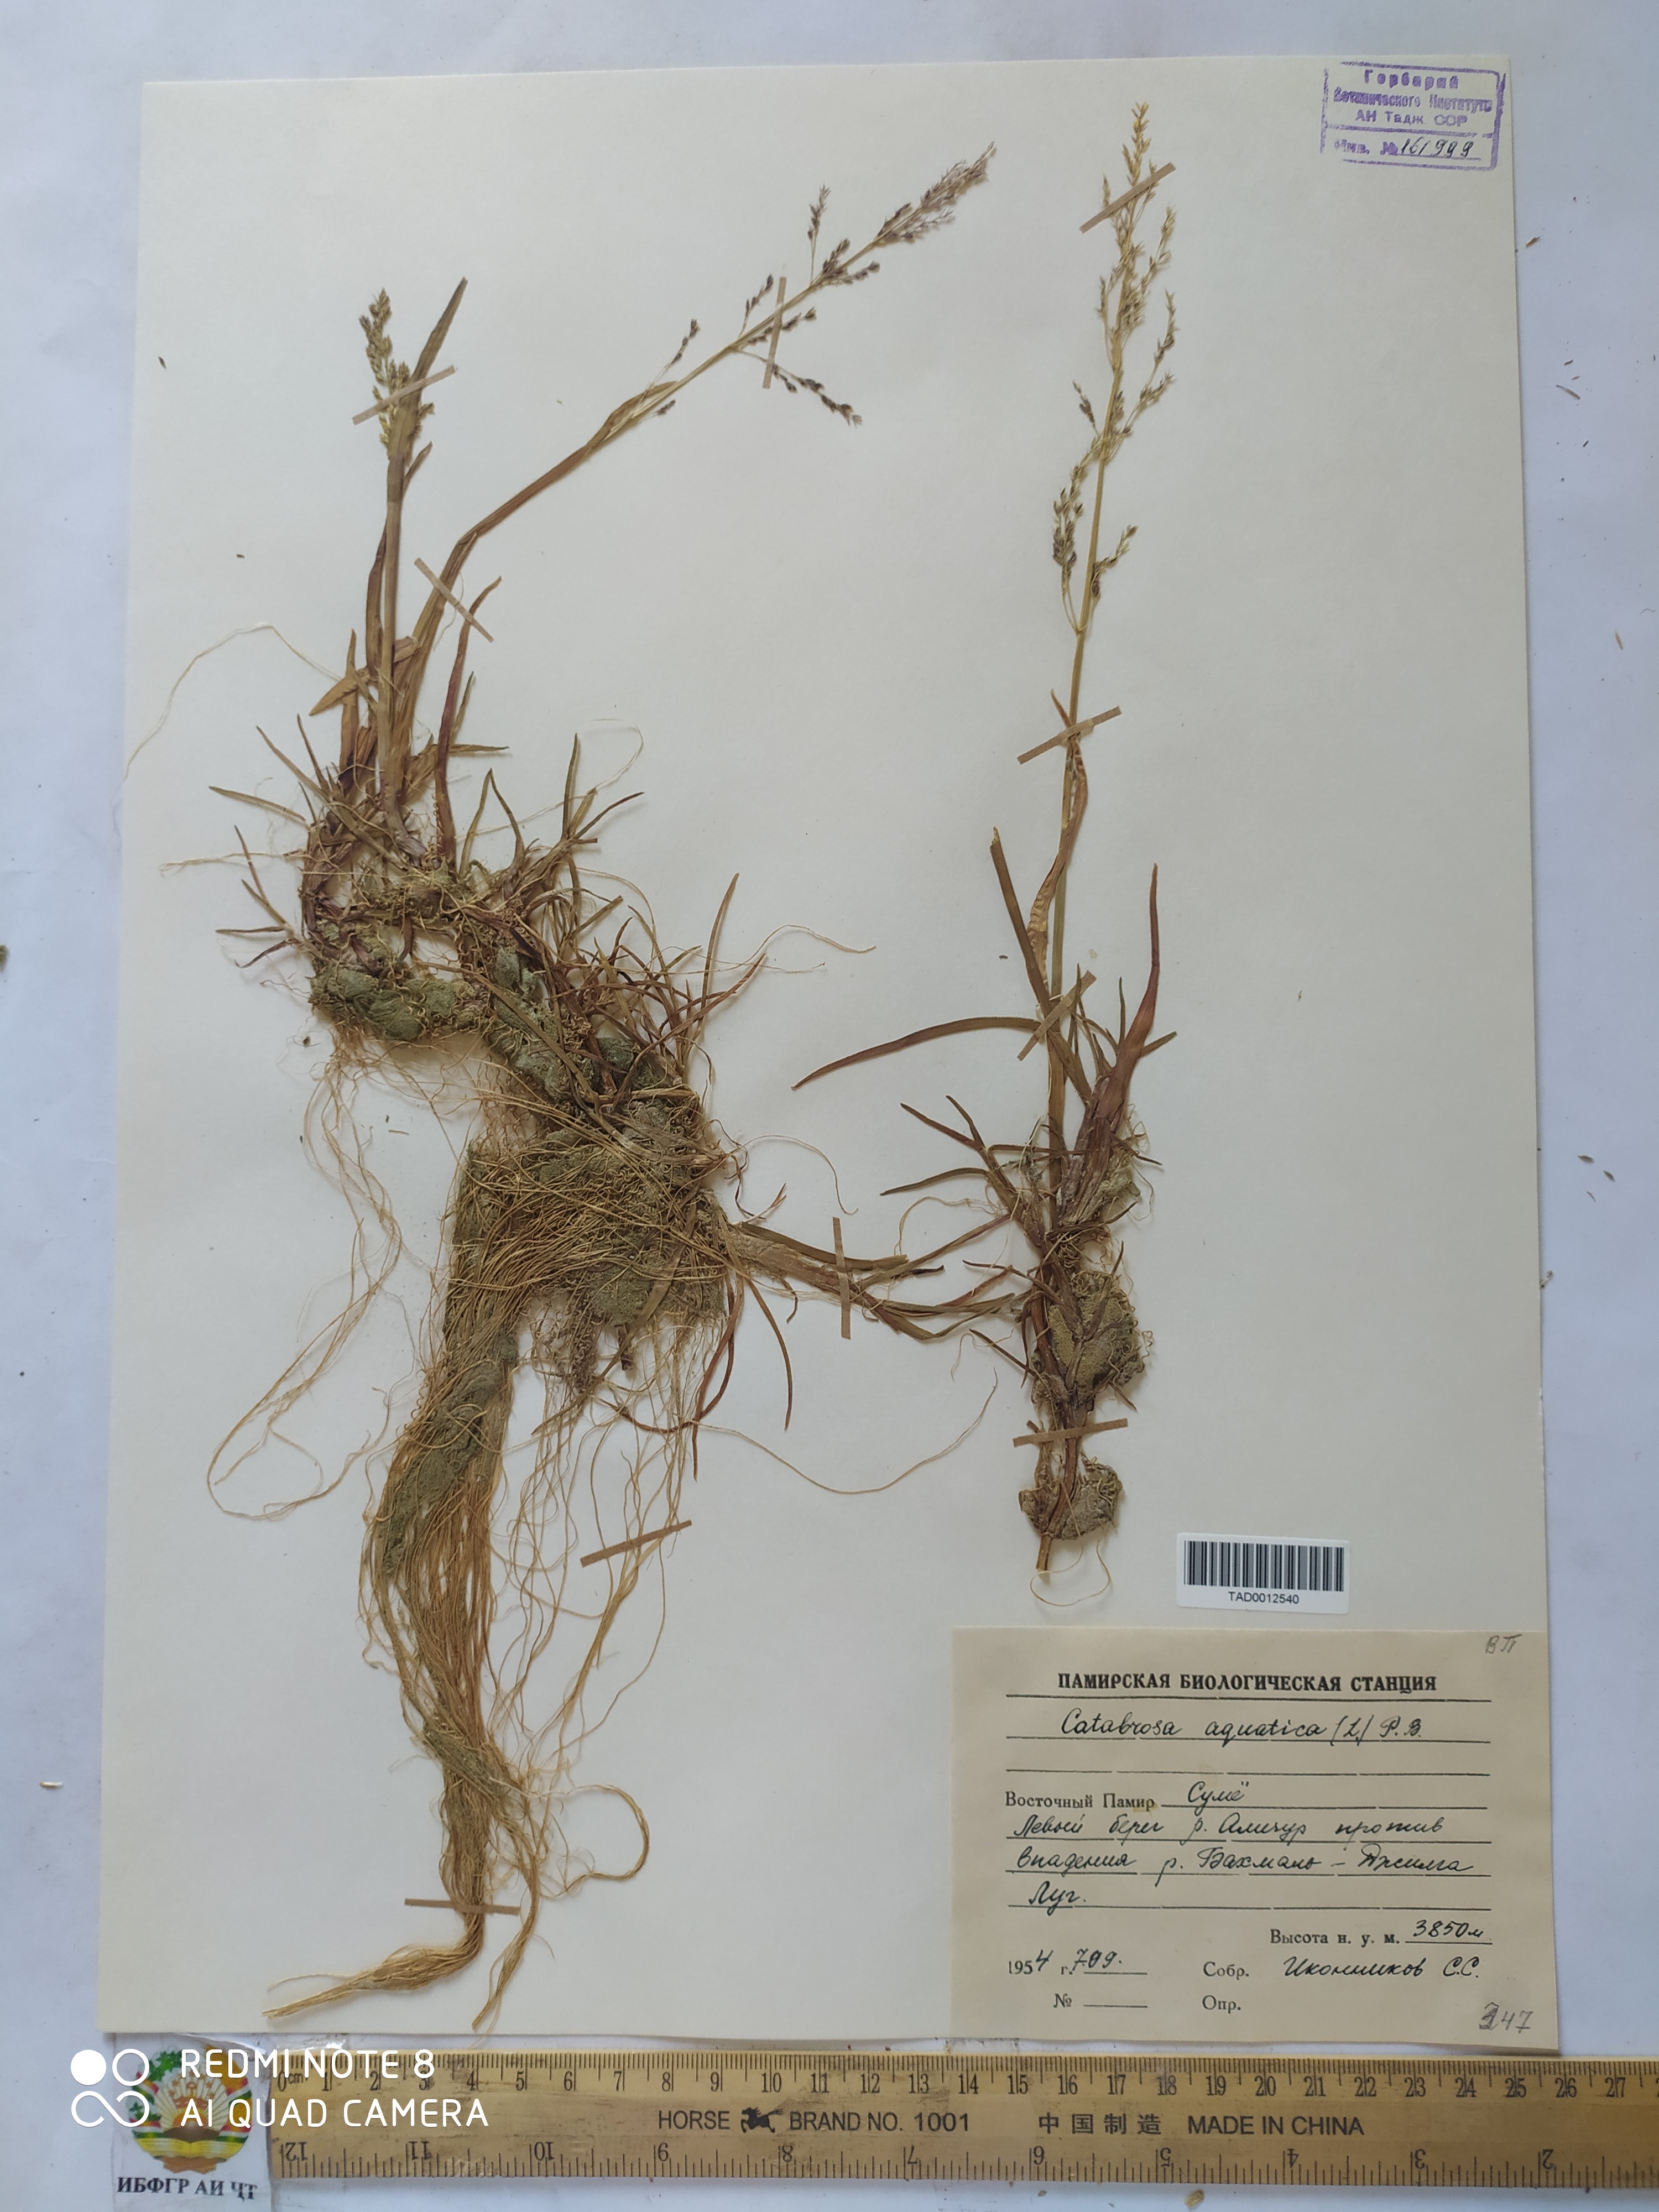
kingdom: Plantae
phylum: Tracheophyta
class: Liliopsida
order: Poales
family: Poaceae
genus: Catabrosa
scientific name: Catabrosa aquatica
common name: Whorl-grass
